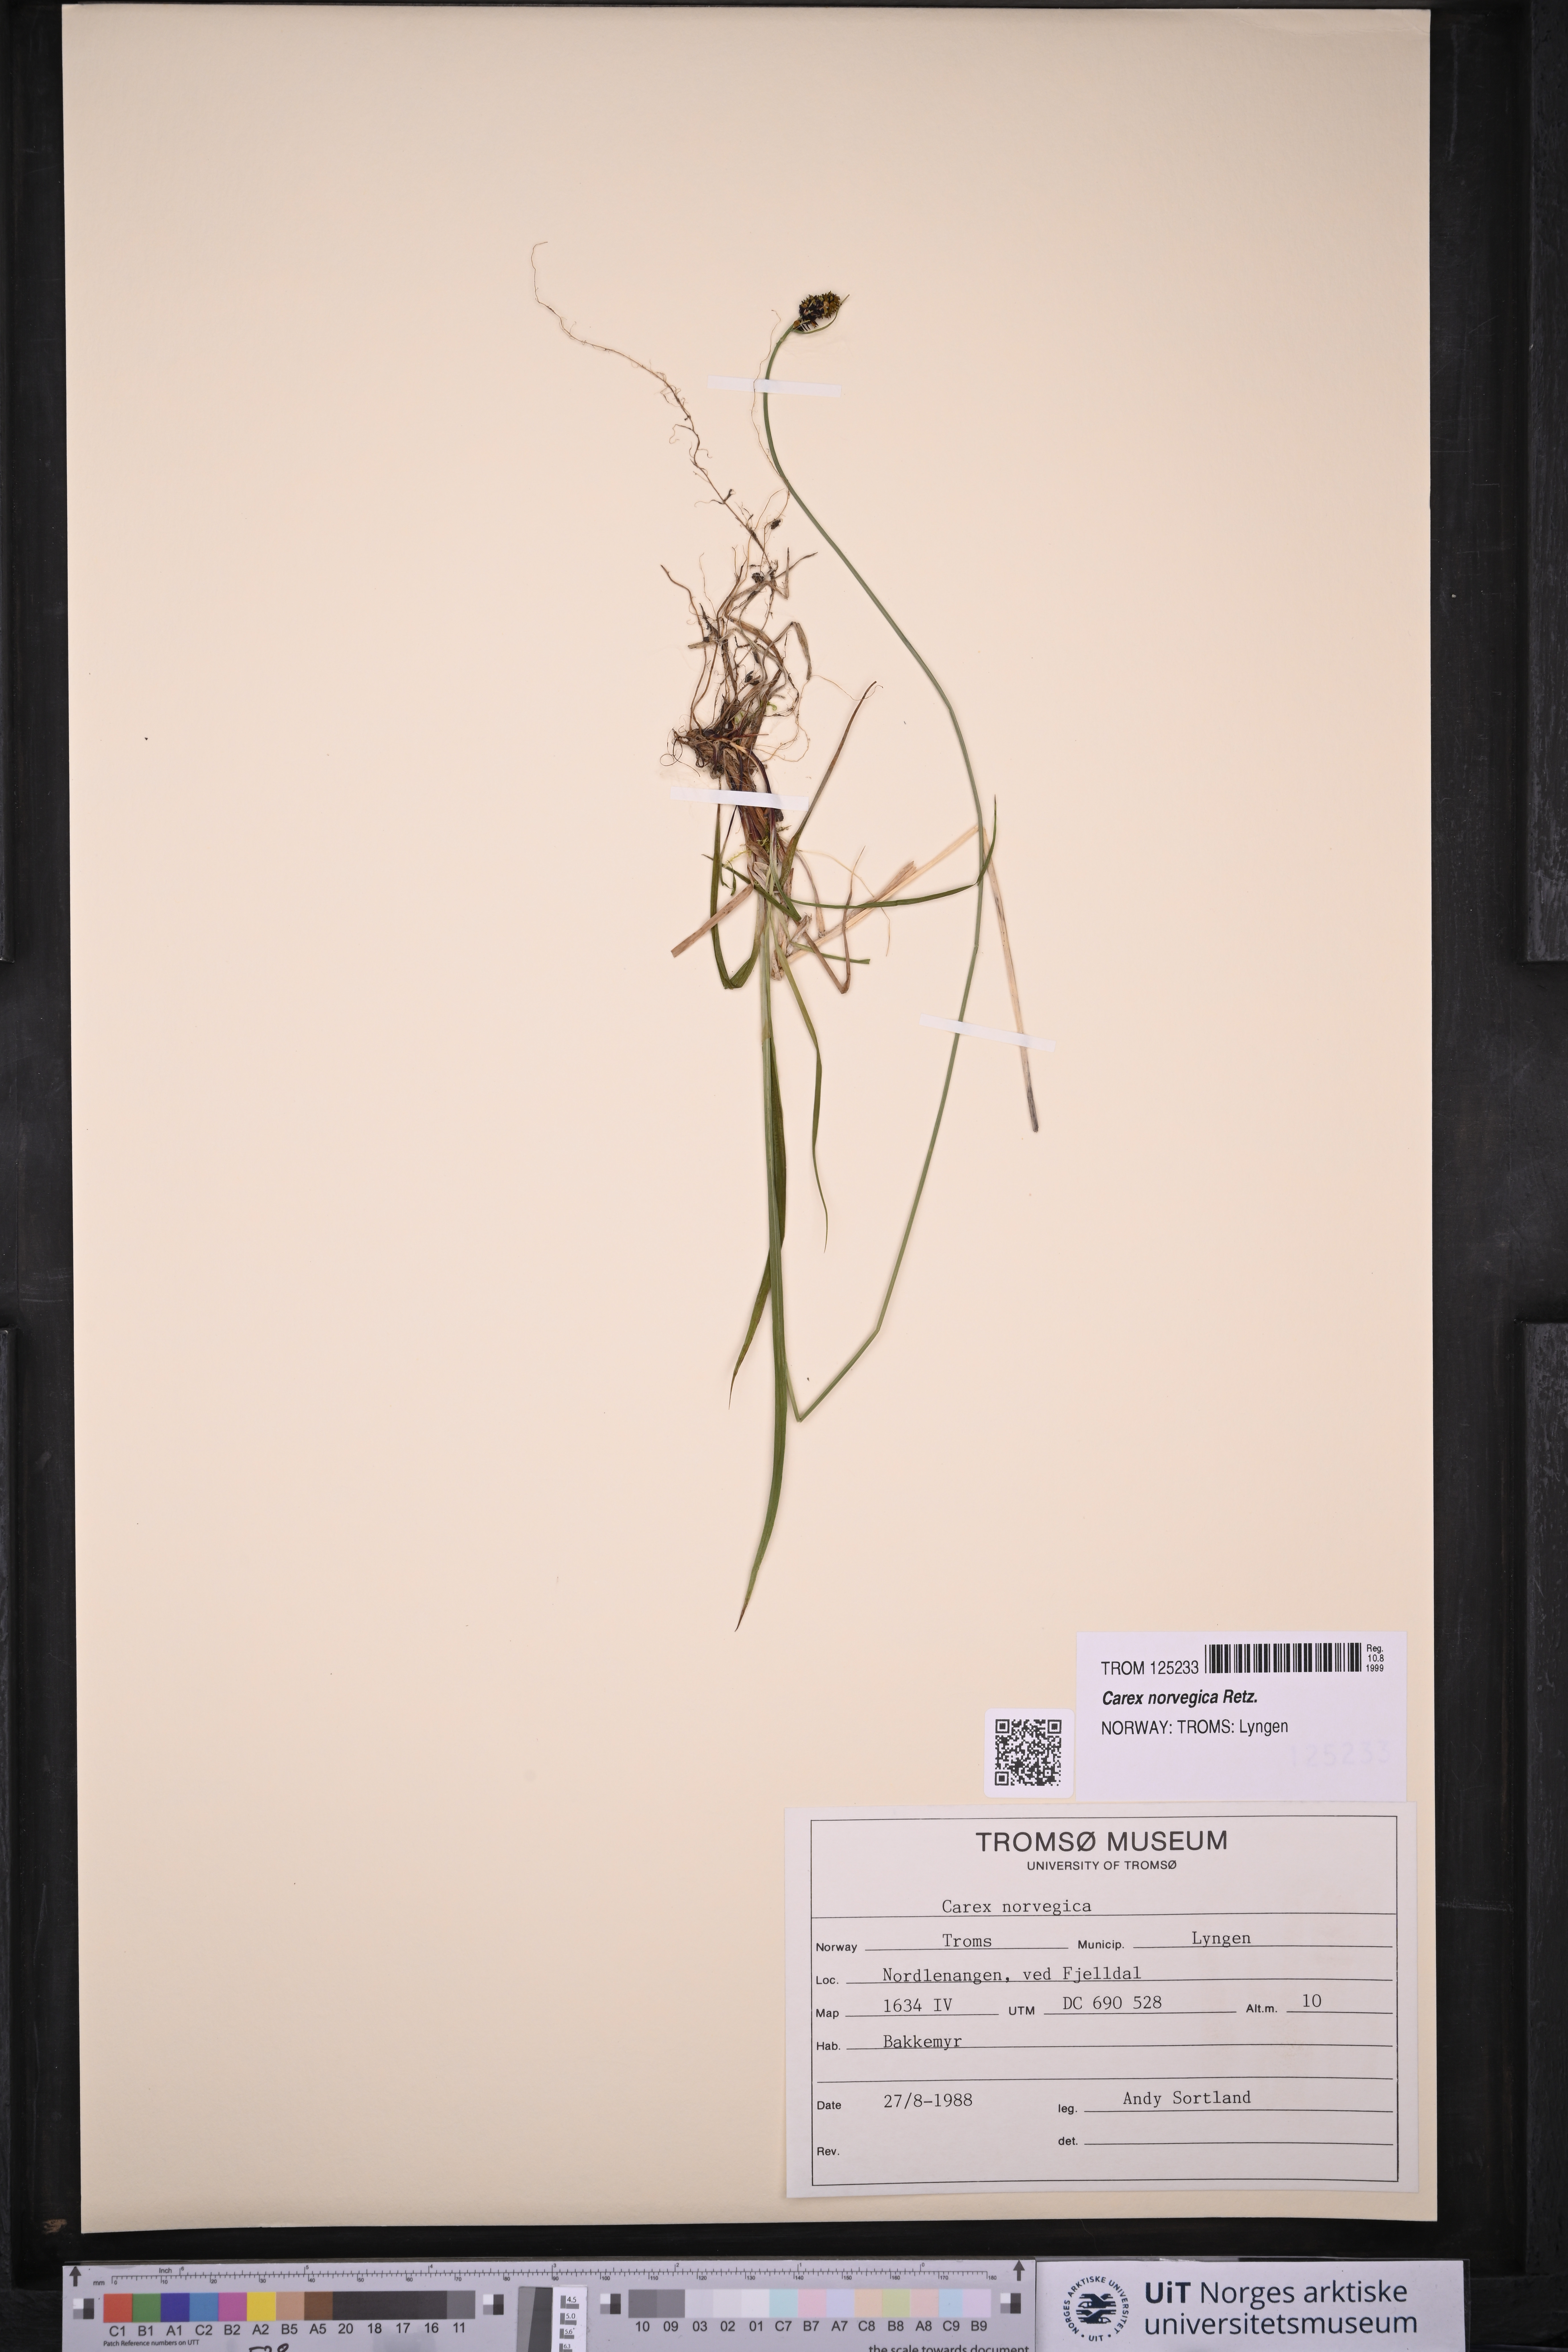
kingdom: Plantae
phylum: Tracheophyta
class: Liliopsida
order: Poales
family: Cyperaceae
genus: Carex
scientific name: Carex norvegica
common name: Close-headed alpine-sedge
